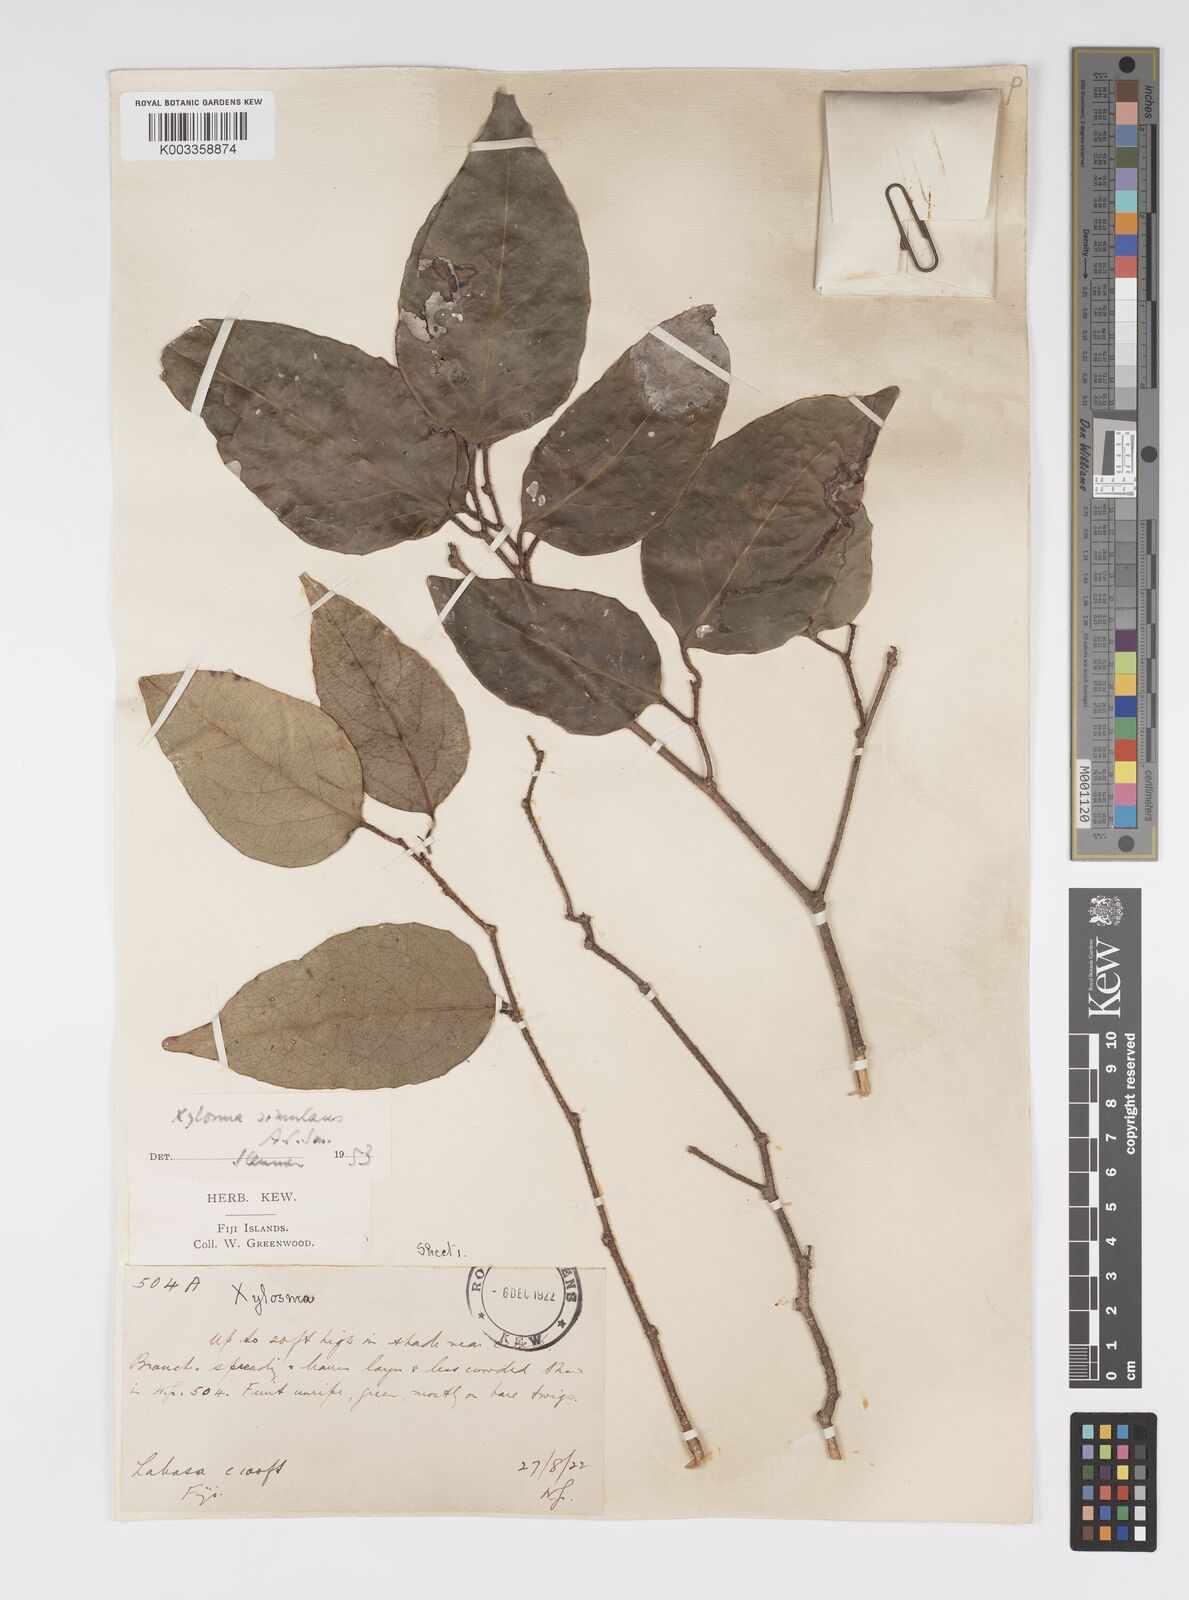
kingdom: Plantae
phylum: Tracheophyta
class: Magnoliopsida
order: Malpighiales
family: Salicaceae
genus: Xylosma
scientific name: Xylosma simulans
